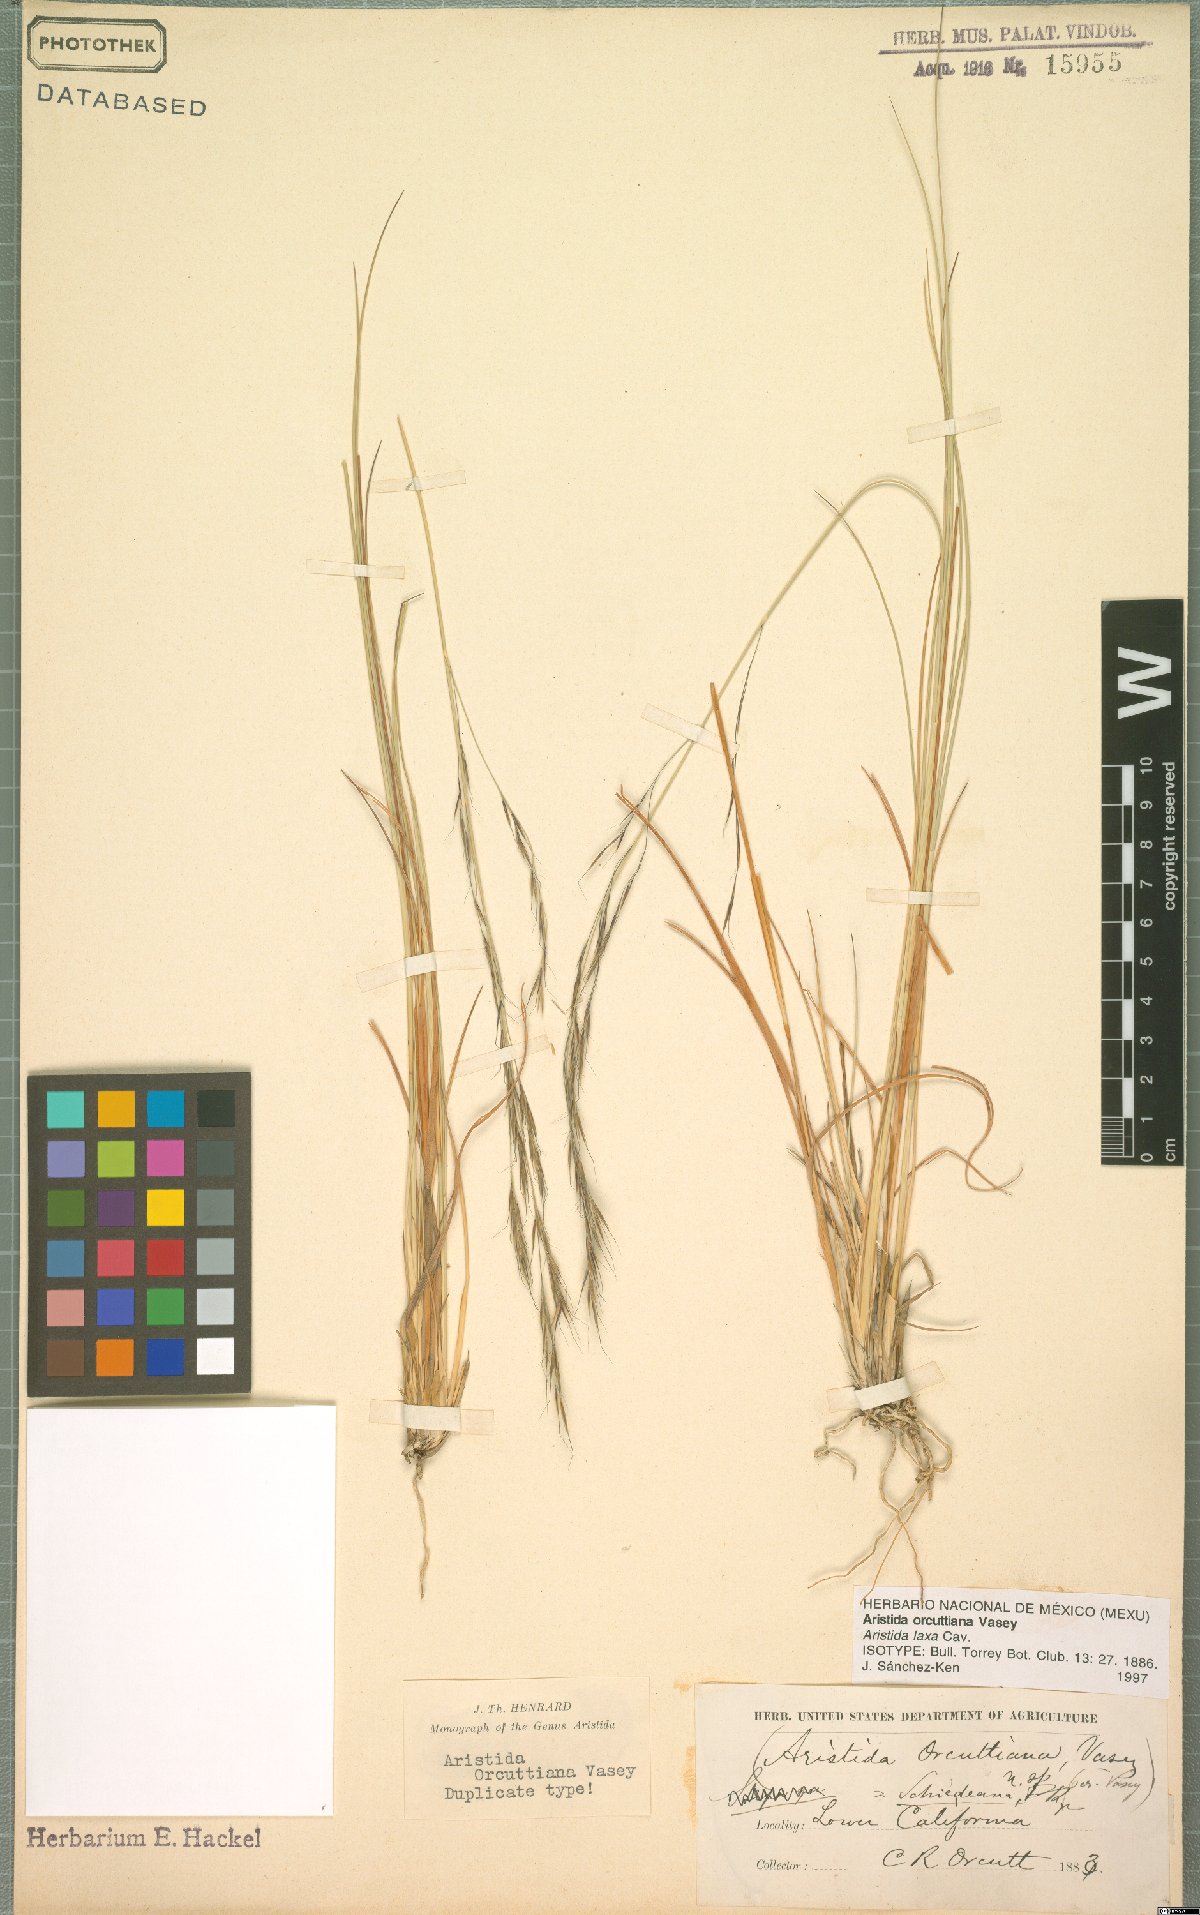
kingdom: Plantae
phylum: Tracheophyta
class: Liliopsida
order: Poales
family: Poaceae
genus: Aristida
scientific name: Aristida schiedeana
